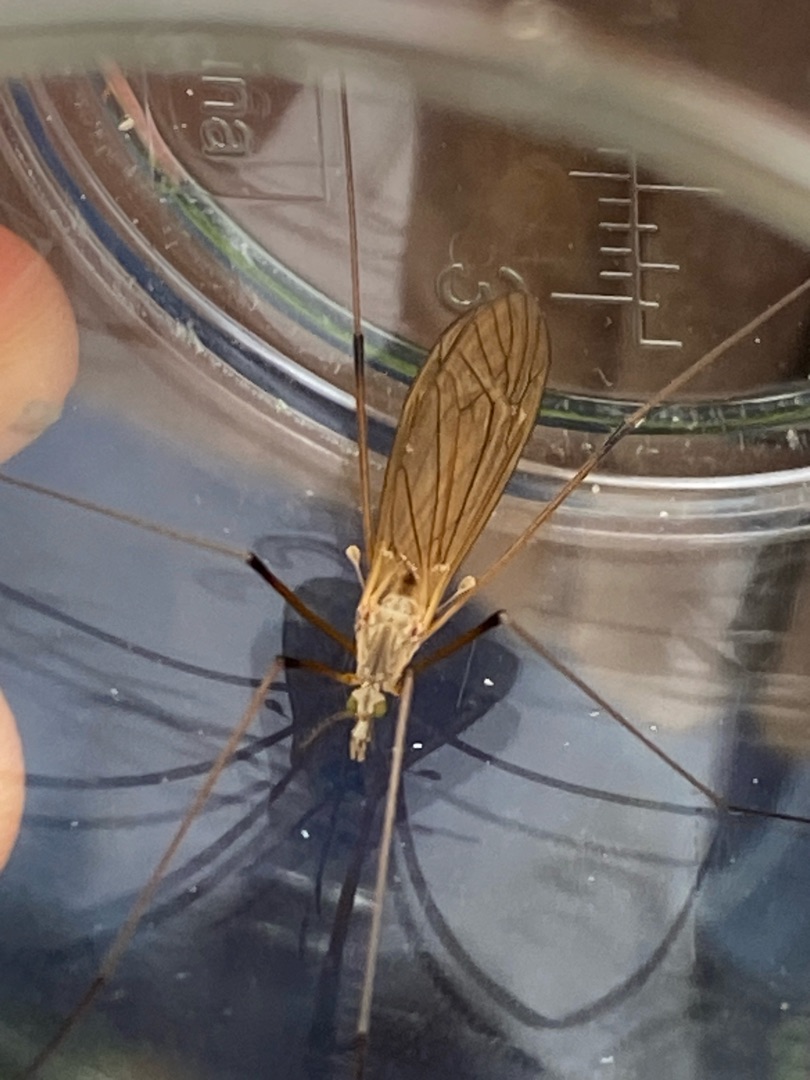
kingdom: Animalia
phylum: Arthropoda
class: Insecta
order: Diptera
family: Tipulidae
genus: Tipula
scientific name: Tipula luteipennis
